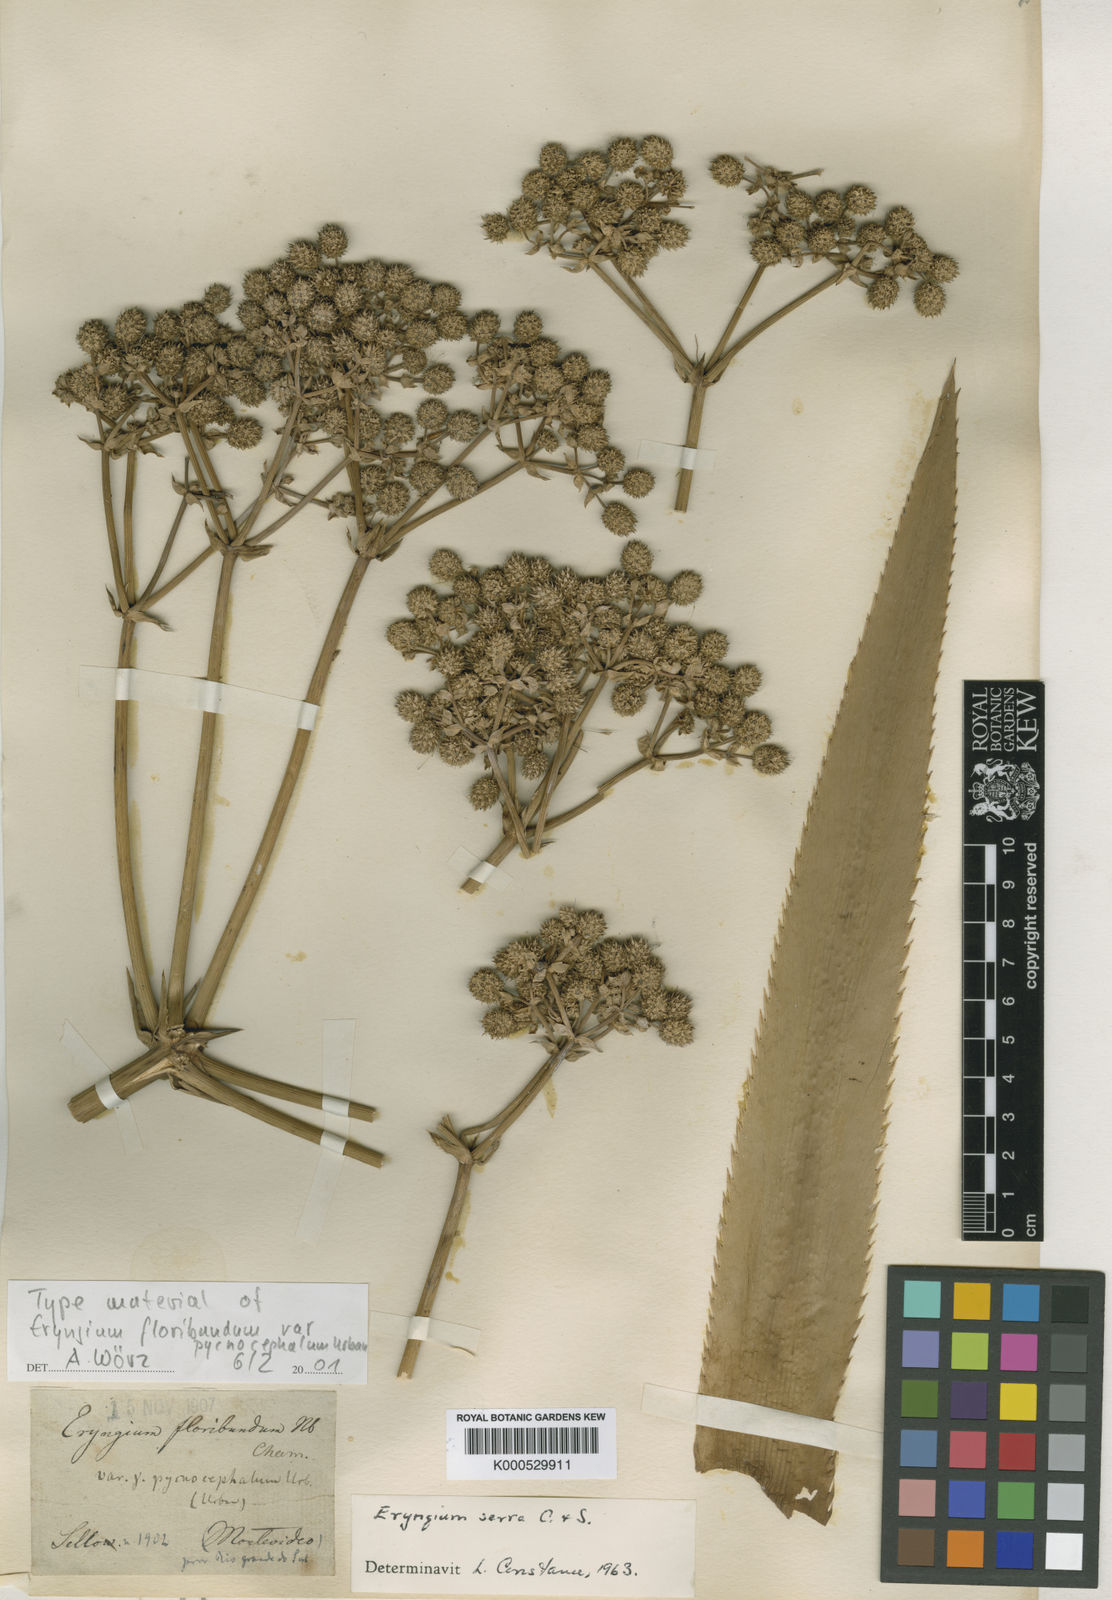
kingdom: Plantae
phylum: Tracheophyta
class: Magnoliopsida
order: Apiales
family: Apiaceae
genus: Eryngium
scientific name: Eryngium floribundum
